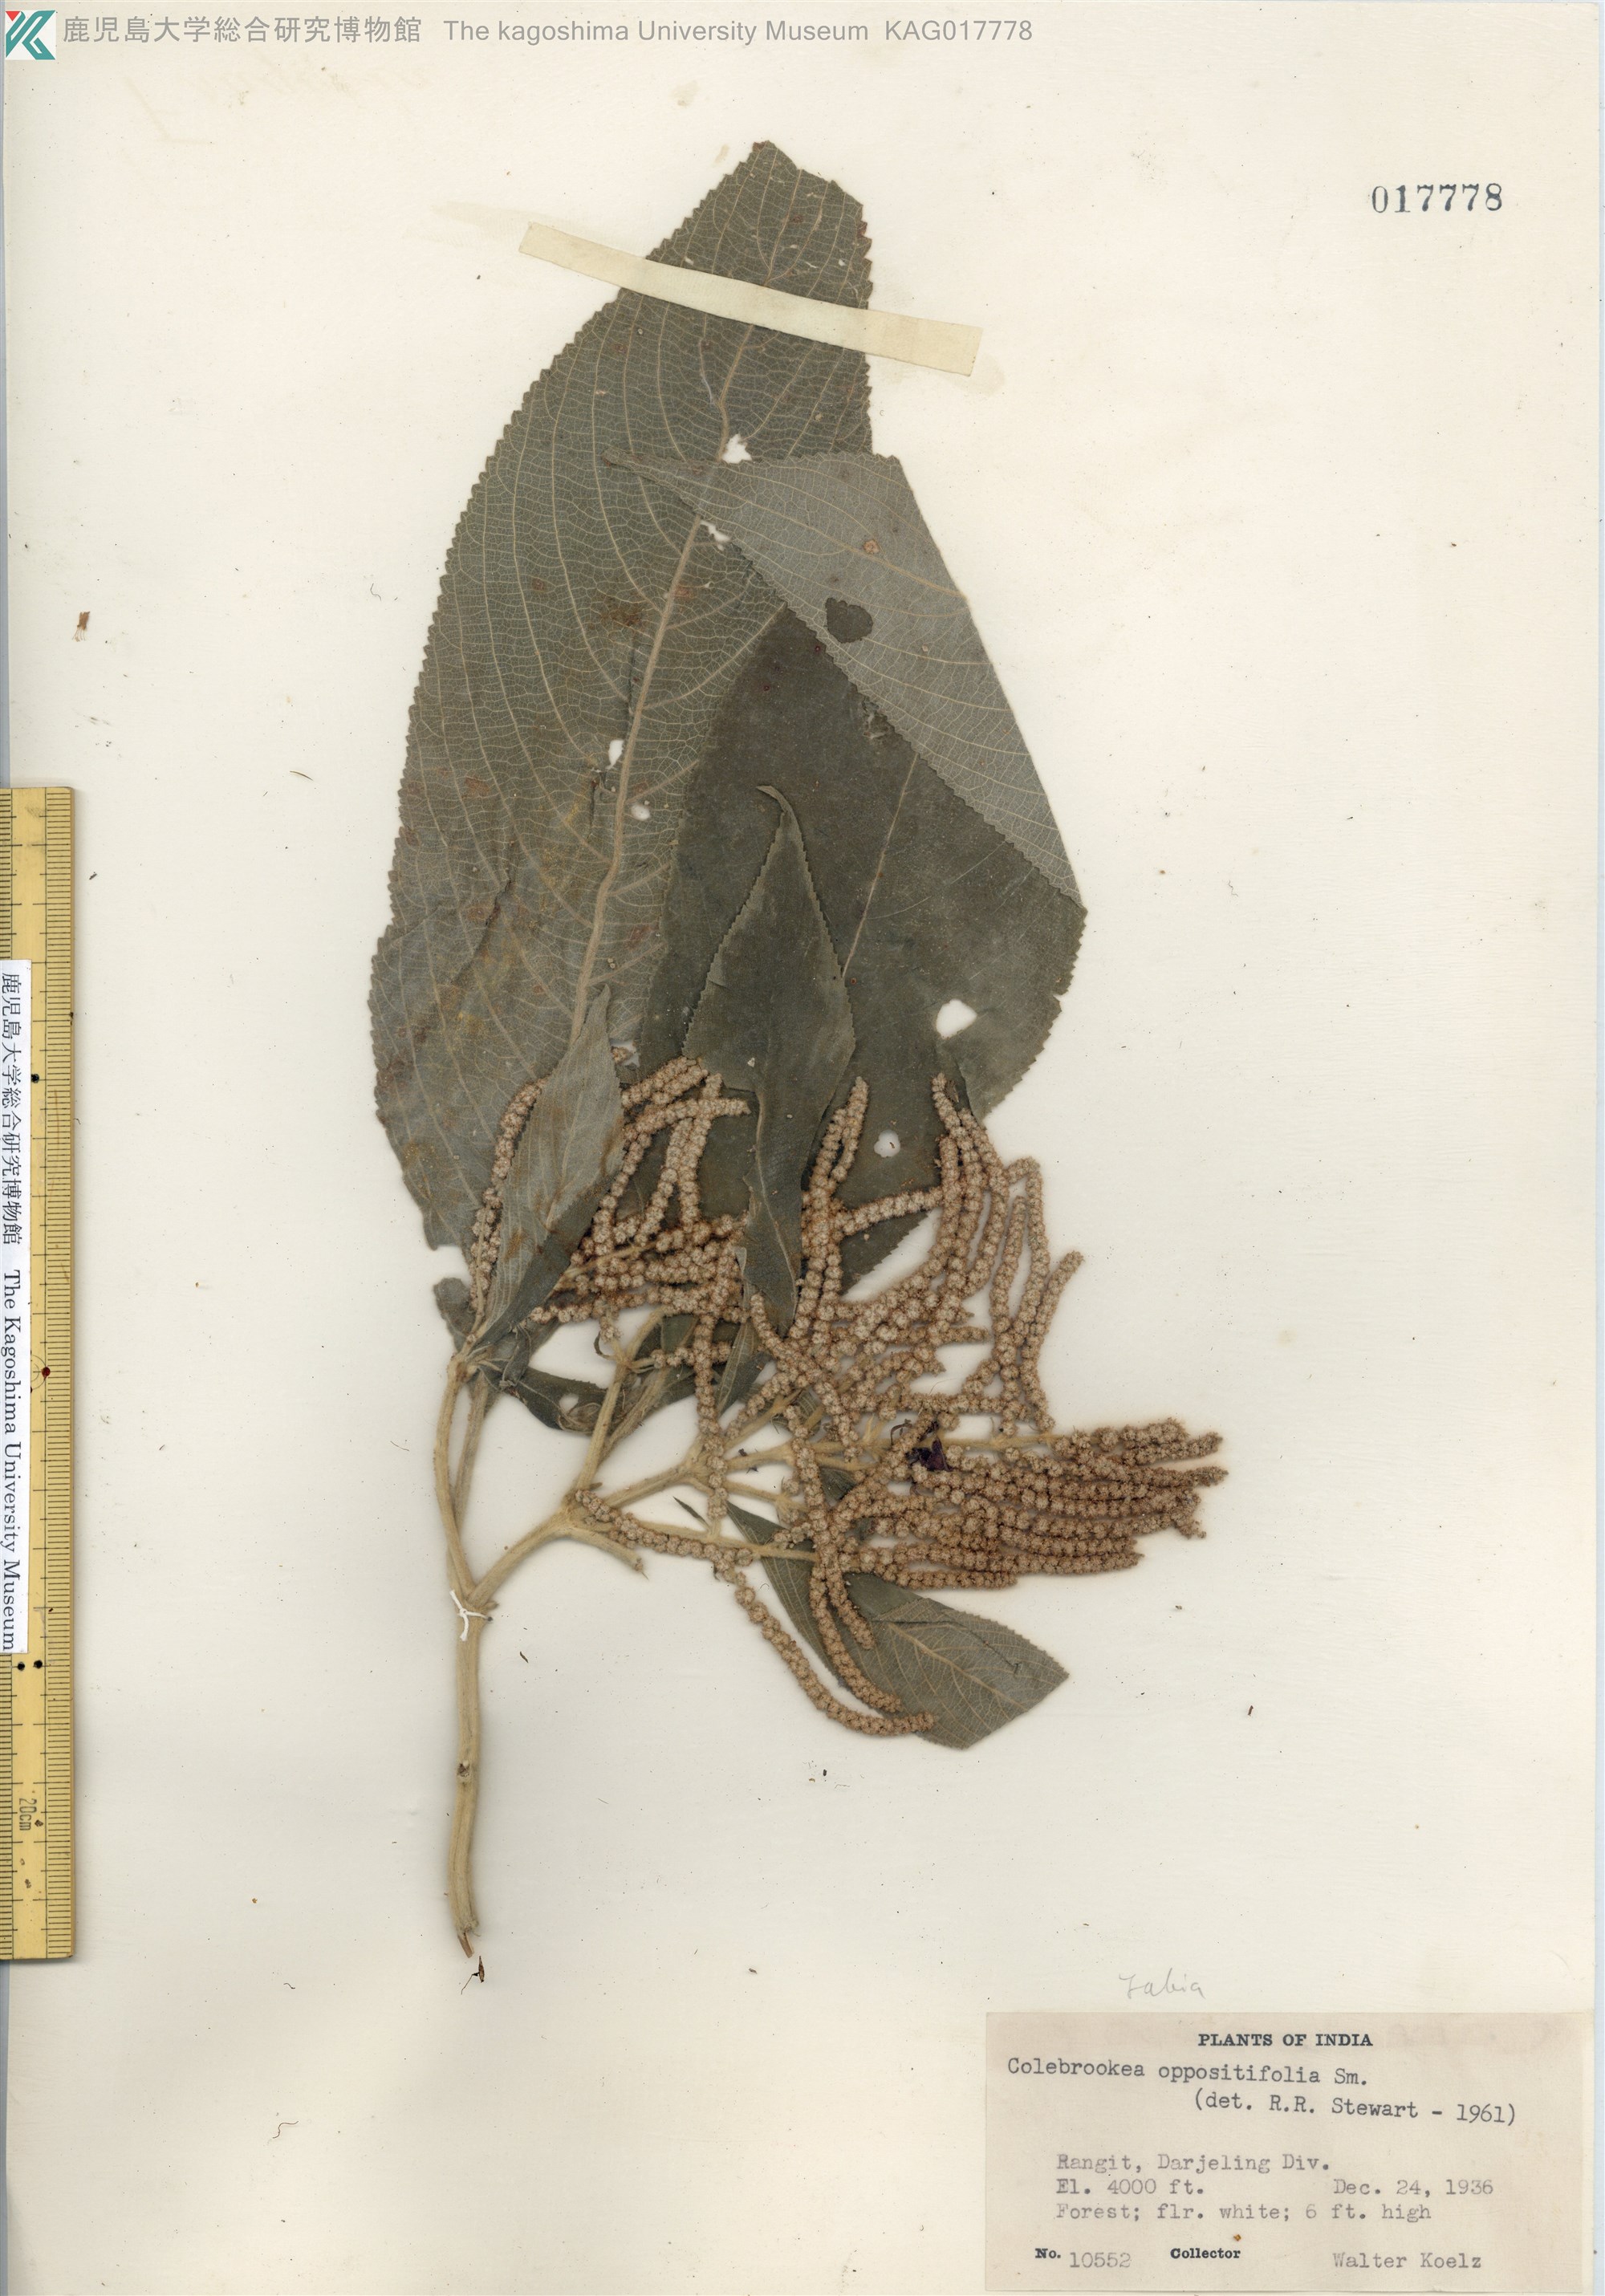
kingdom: Plantae
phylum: Tracheophyta
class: Magnoliopsida
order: Lamiales
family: Lamiaceae
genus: Colebrookea
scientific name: Colebrookea oppositifolia
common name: Indian squirrel tail
